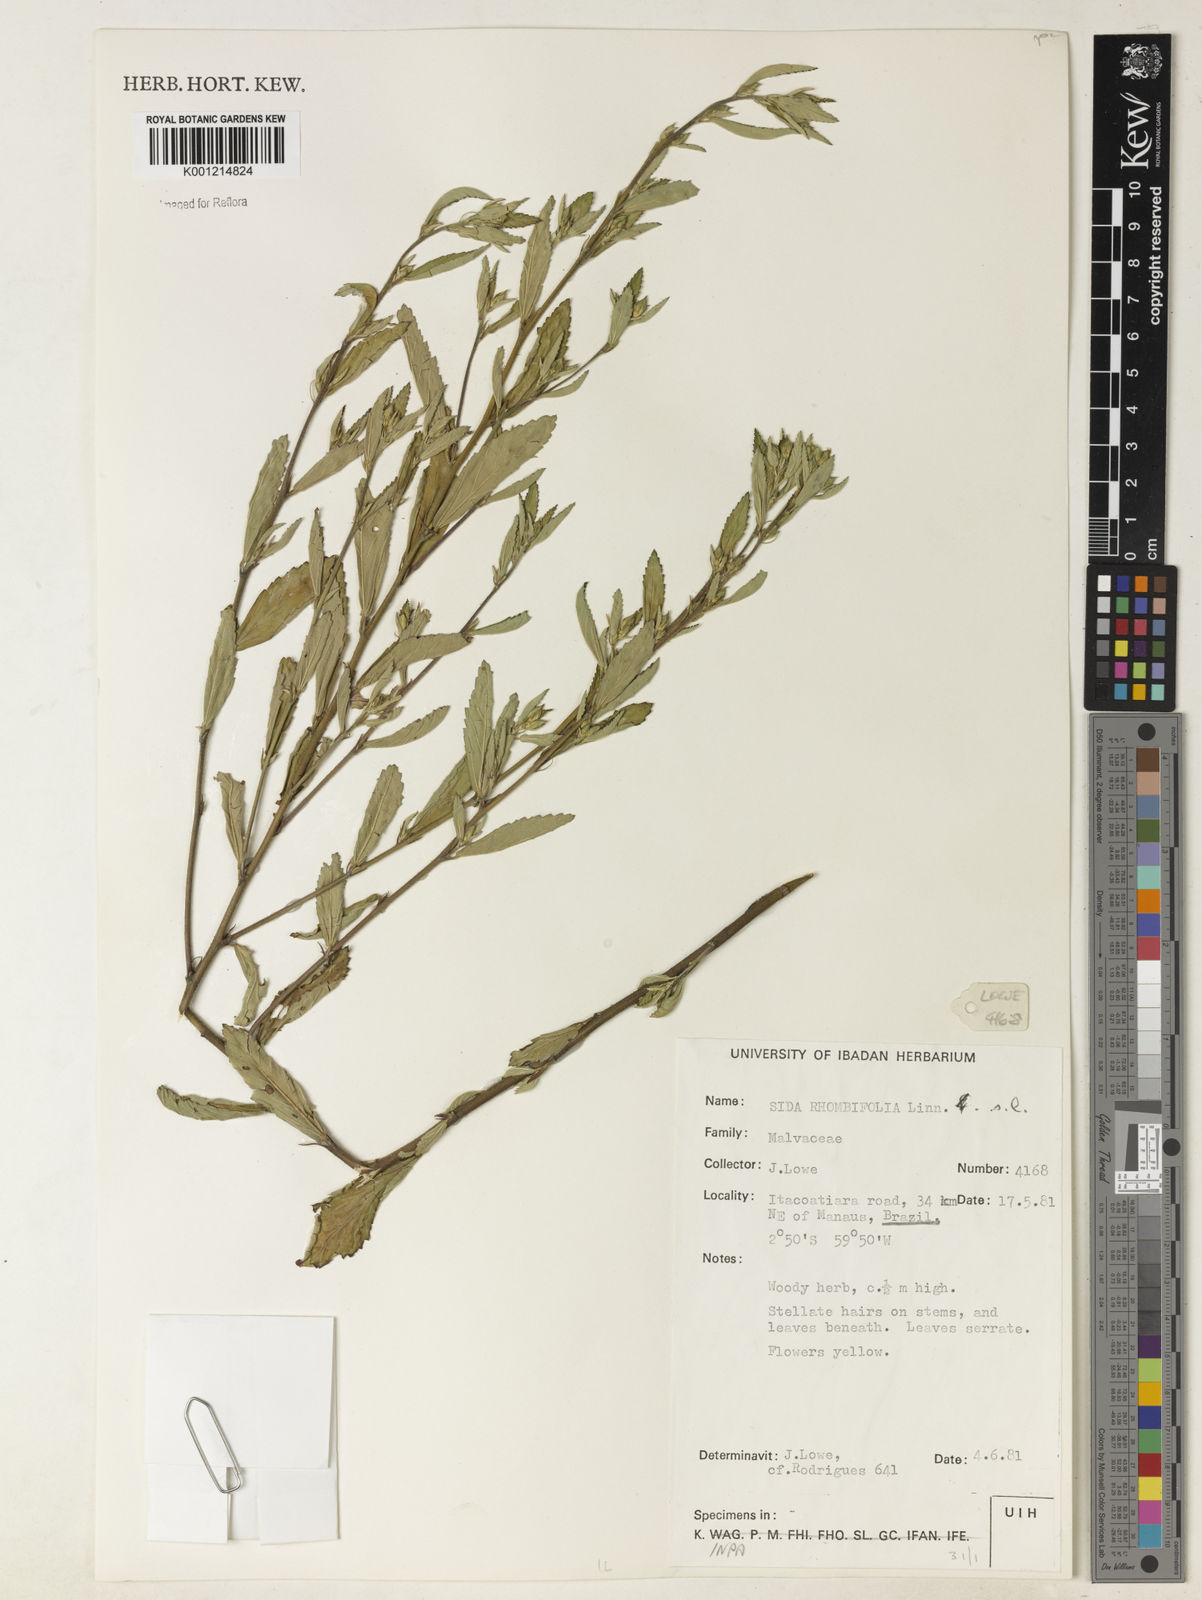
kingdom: Plantae
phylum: Tracheophyta
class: Magnoliopsida
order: Malvales
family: Malvaceae
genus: Sida
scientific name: Sida rhombifolia
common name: Queensland-hemp
